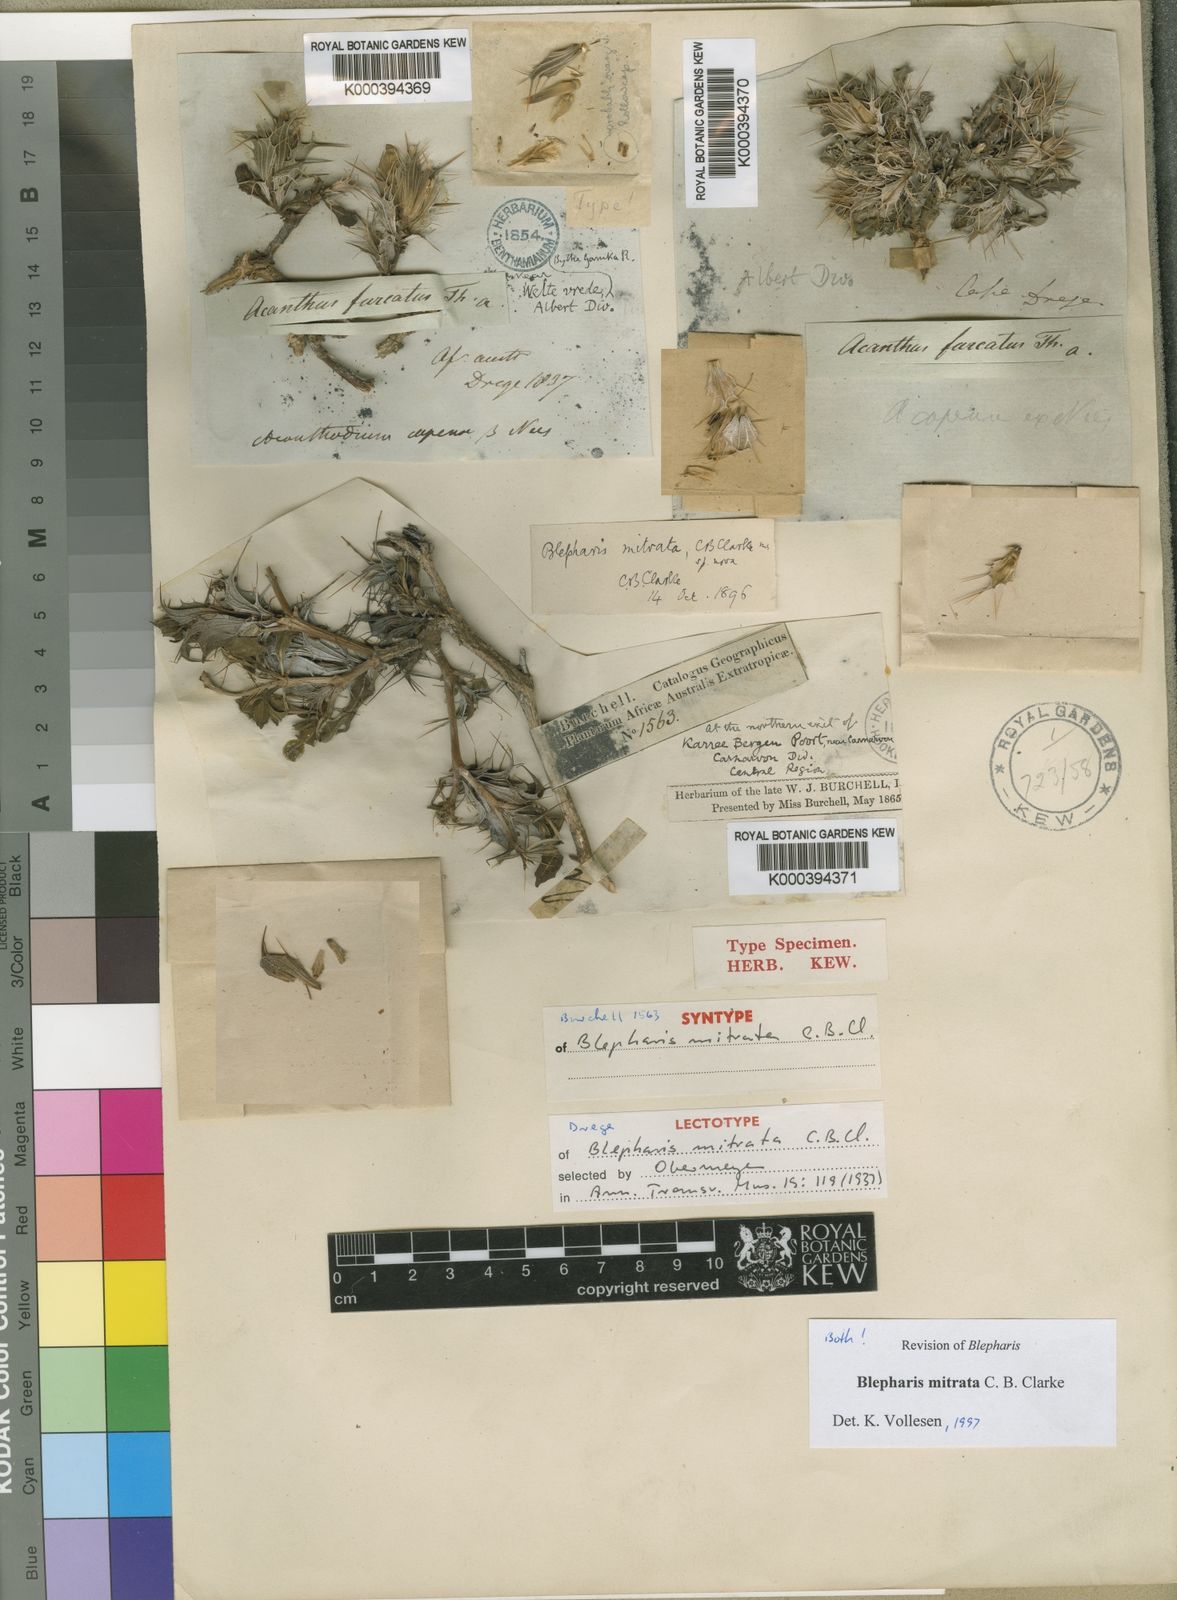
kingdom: Plantae
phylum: Tracheophyta
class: Magnoliopsida
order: Lamiales
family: Acanthaceae
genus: Blepharis
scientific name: Blepharis mitrata
